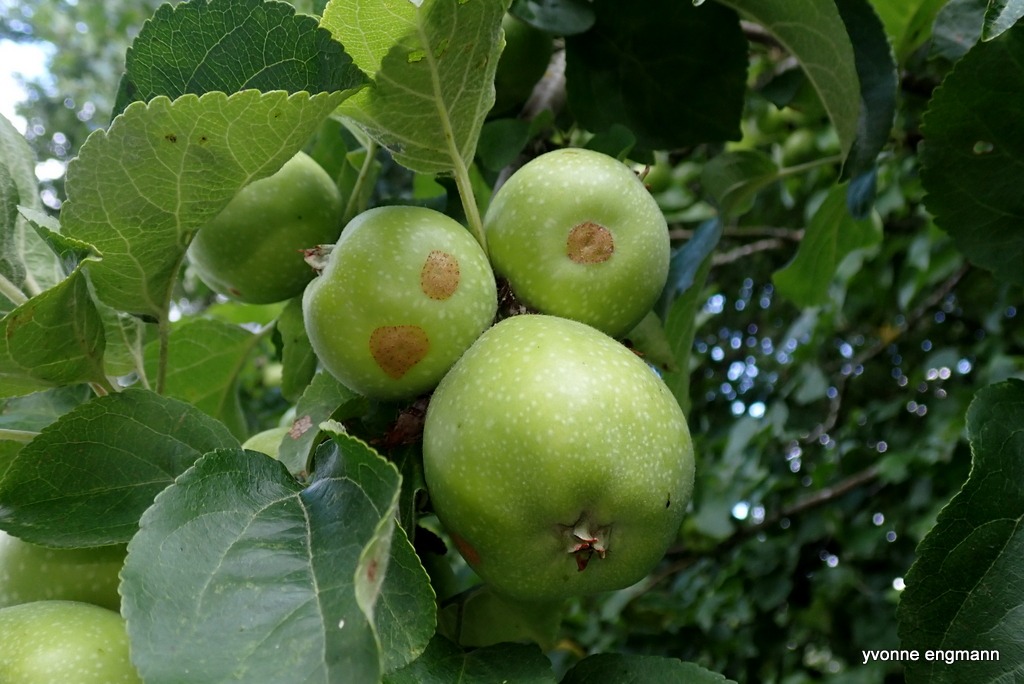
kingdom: Plantae
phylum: Tracheophyta
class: Magnoliopsida
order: Rosales
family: Rosaceae
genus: Malus
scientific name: Malus domestica
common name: Sød-æble
